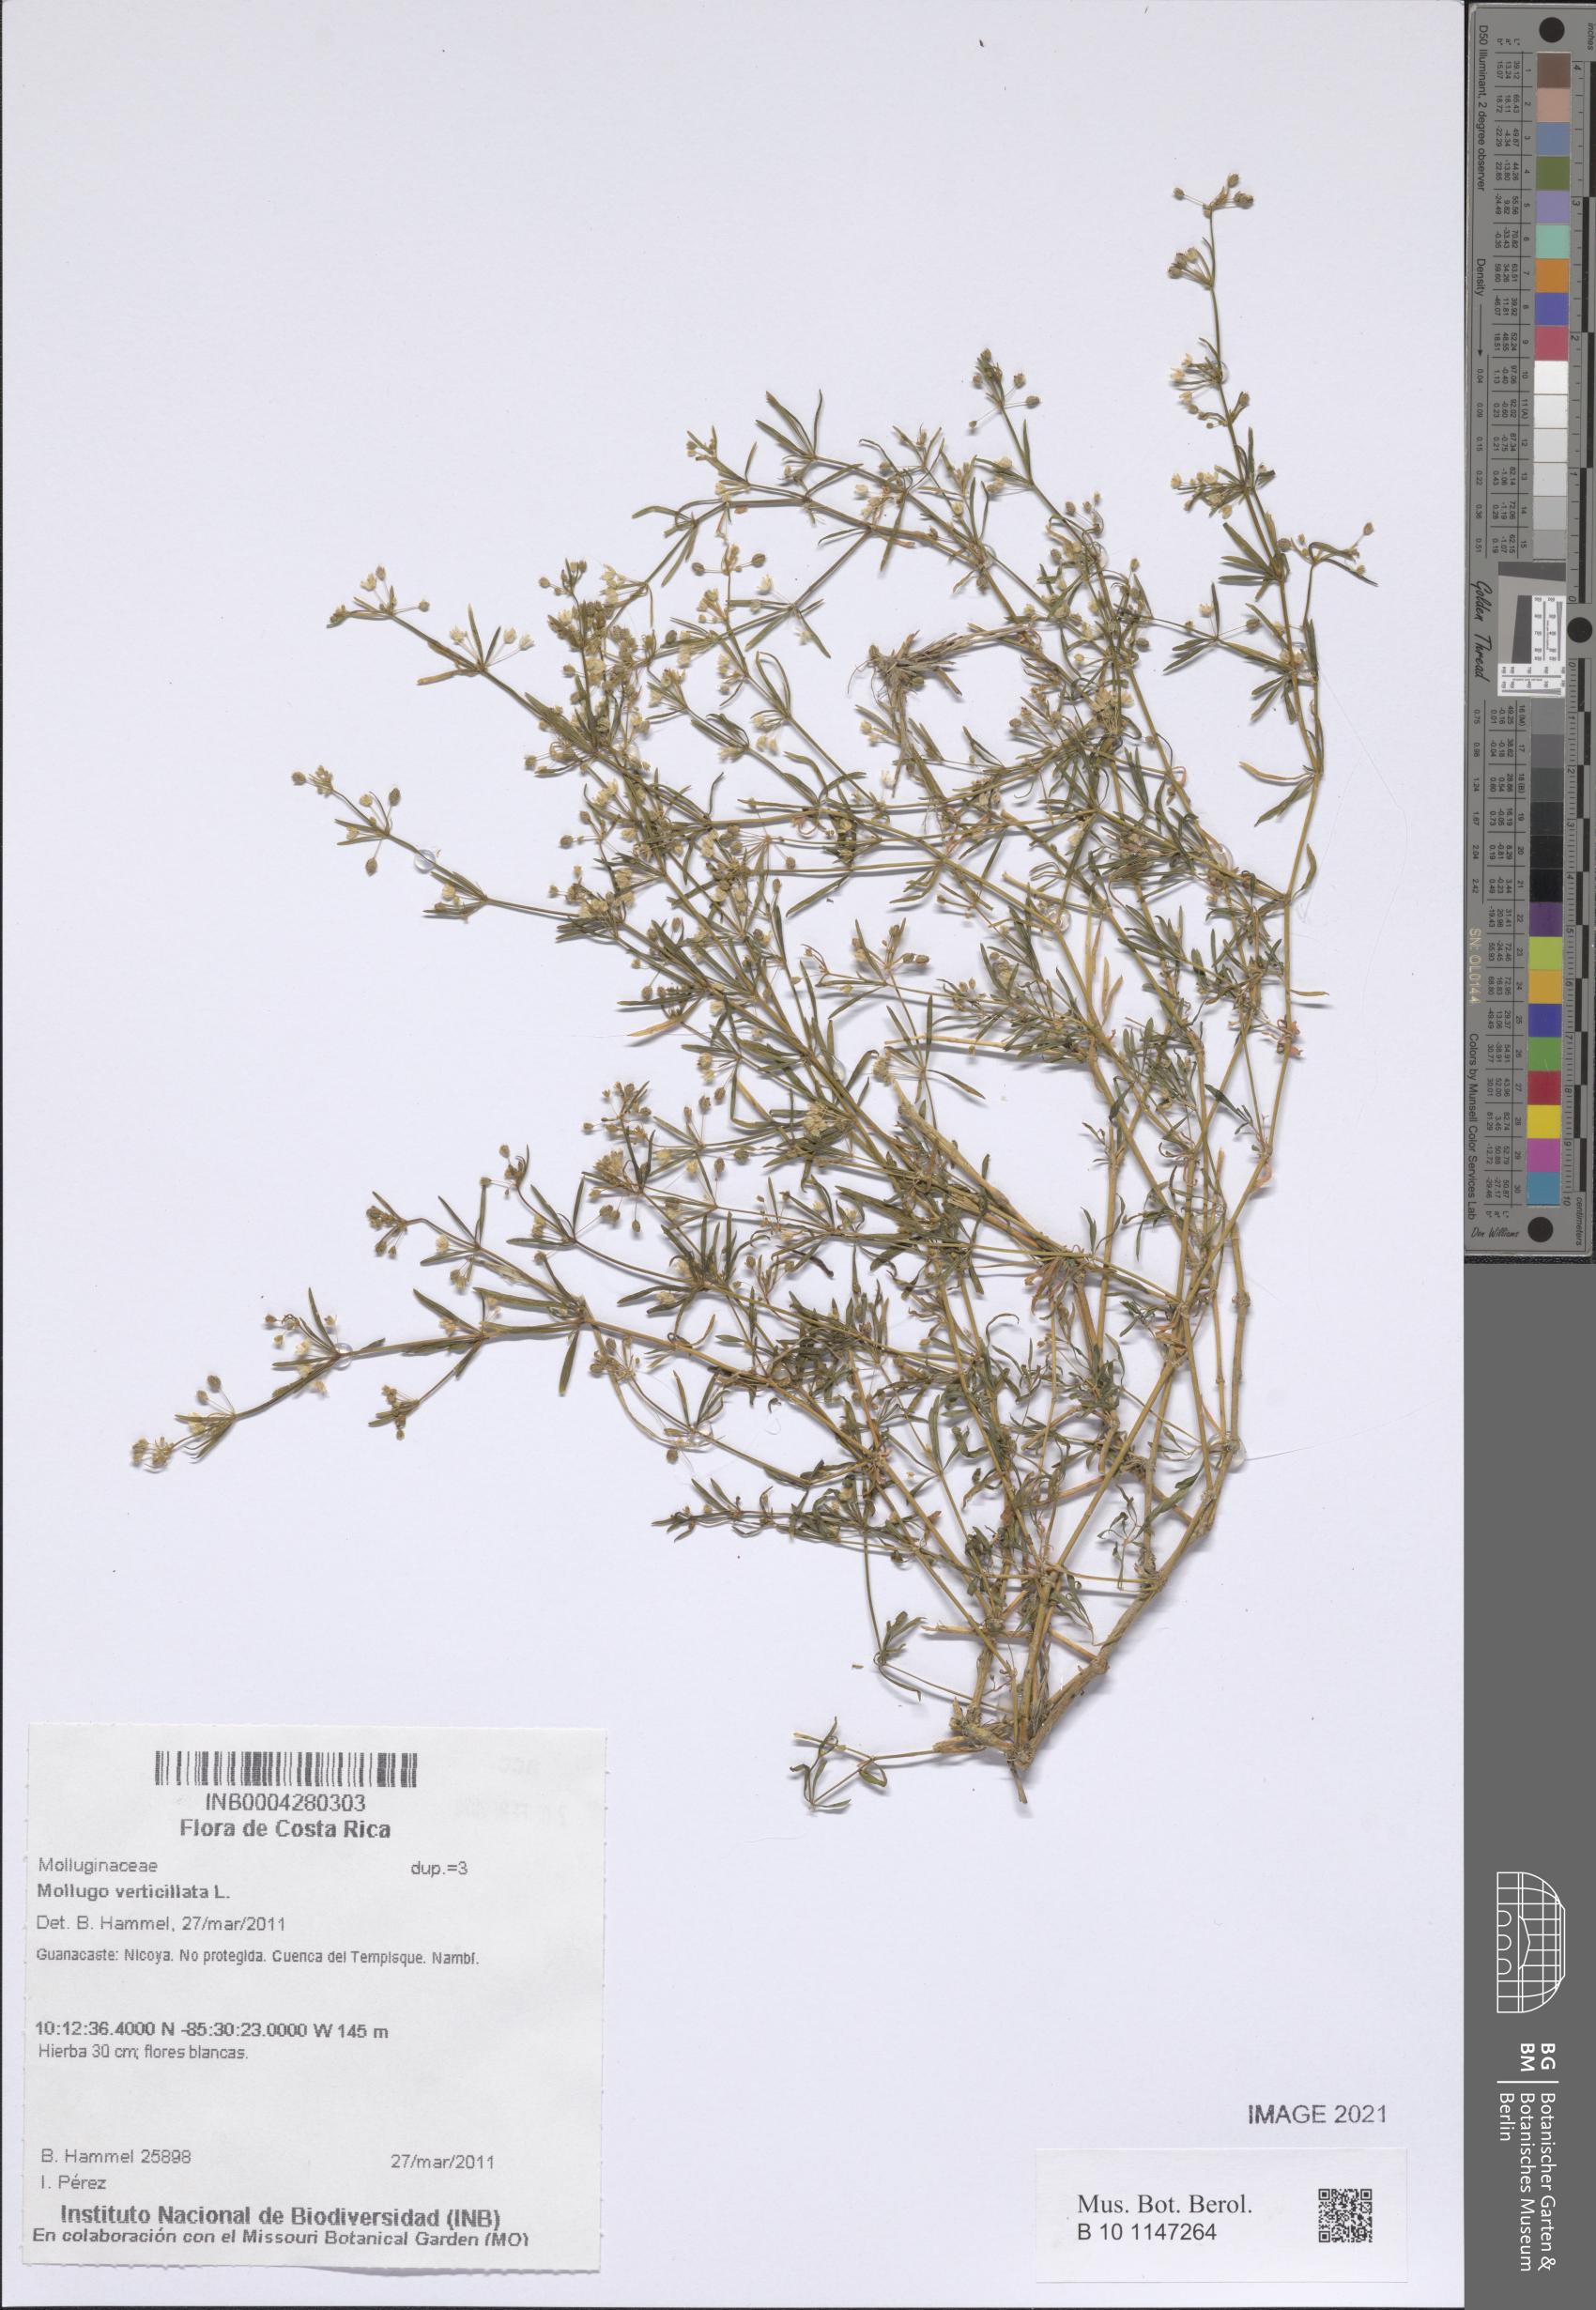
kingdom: Plantae
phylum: Tracheophyta
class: Magnoliopsida
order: Caryophyllales
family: Molluginaceae
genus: Mollugo
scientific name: Mollugo verticillata
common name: Green carpetweed
